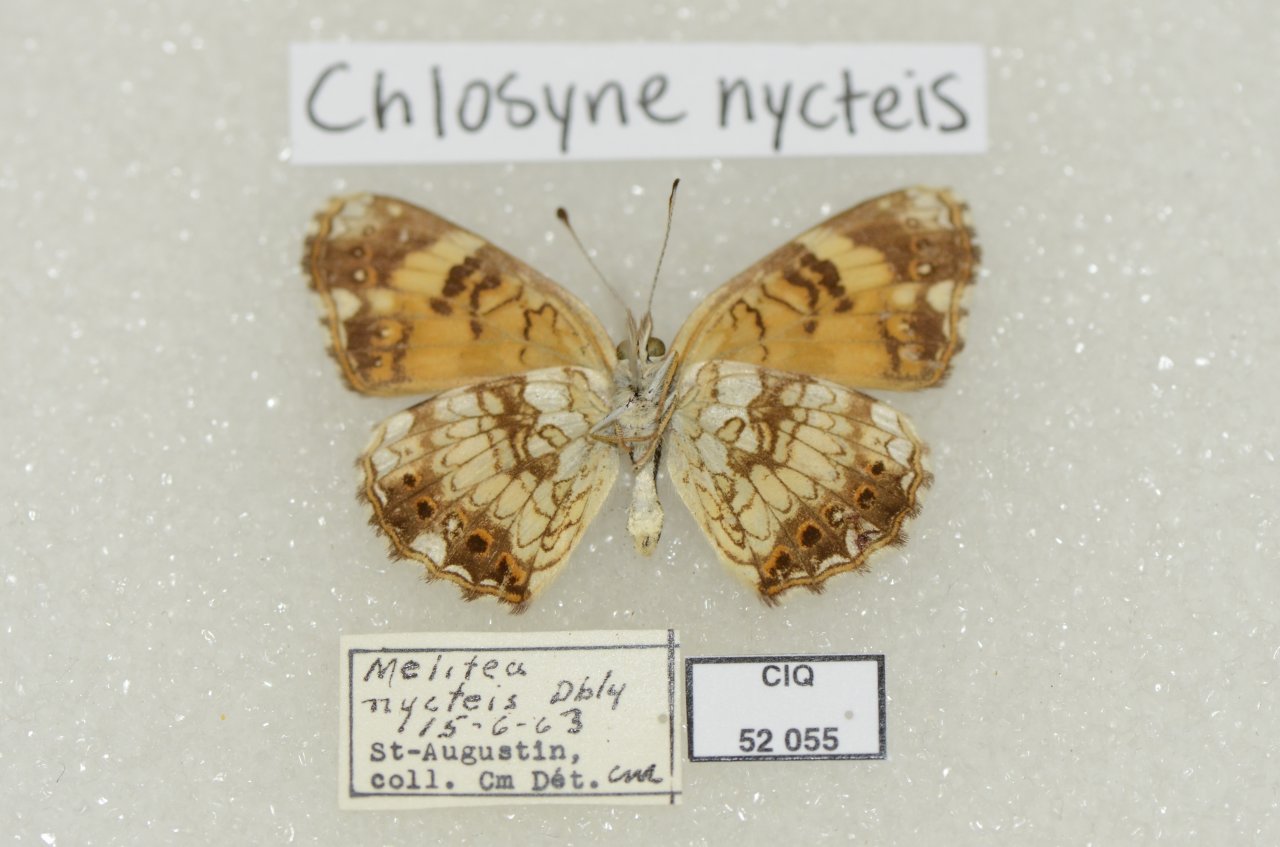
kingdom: Animalia
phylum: Arthropoda
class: Insecta
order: Lepidoptera
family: Nymphalidae
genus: Chlosyne
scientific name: Chlosyne nycteis
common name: Silvery Checkerspot
